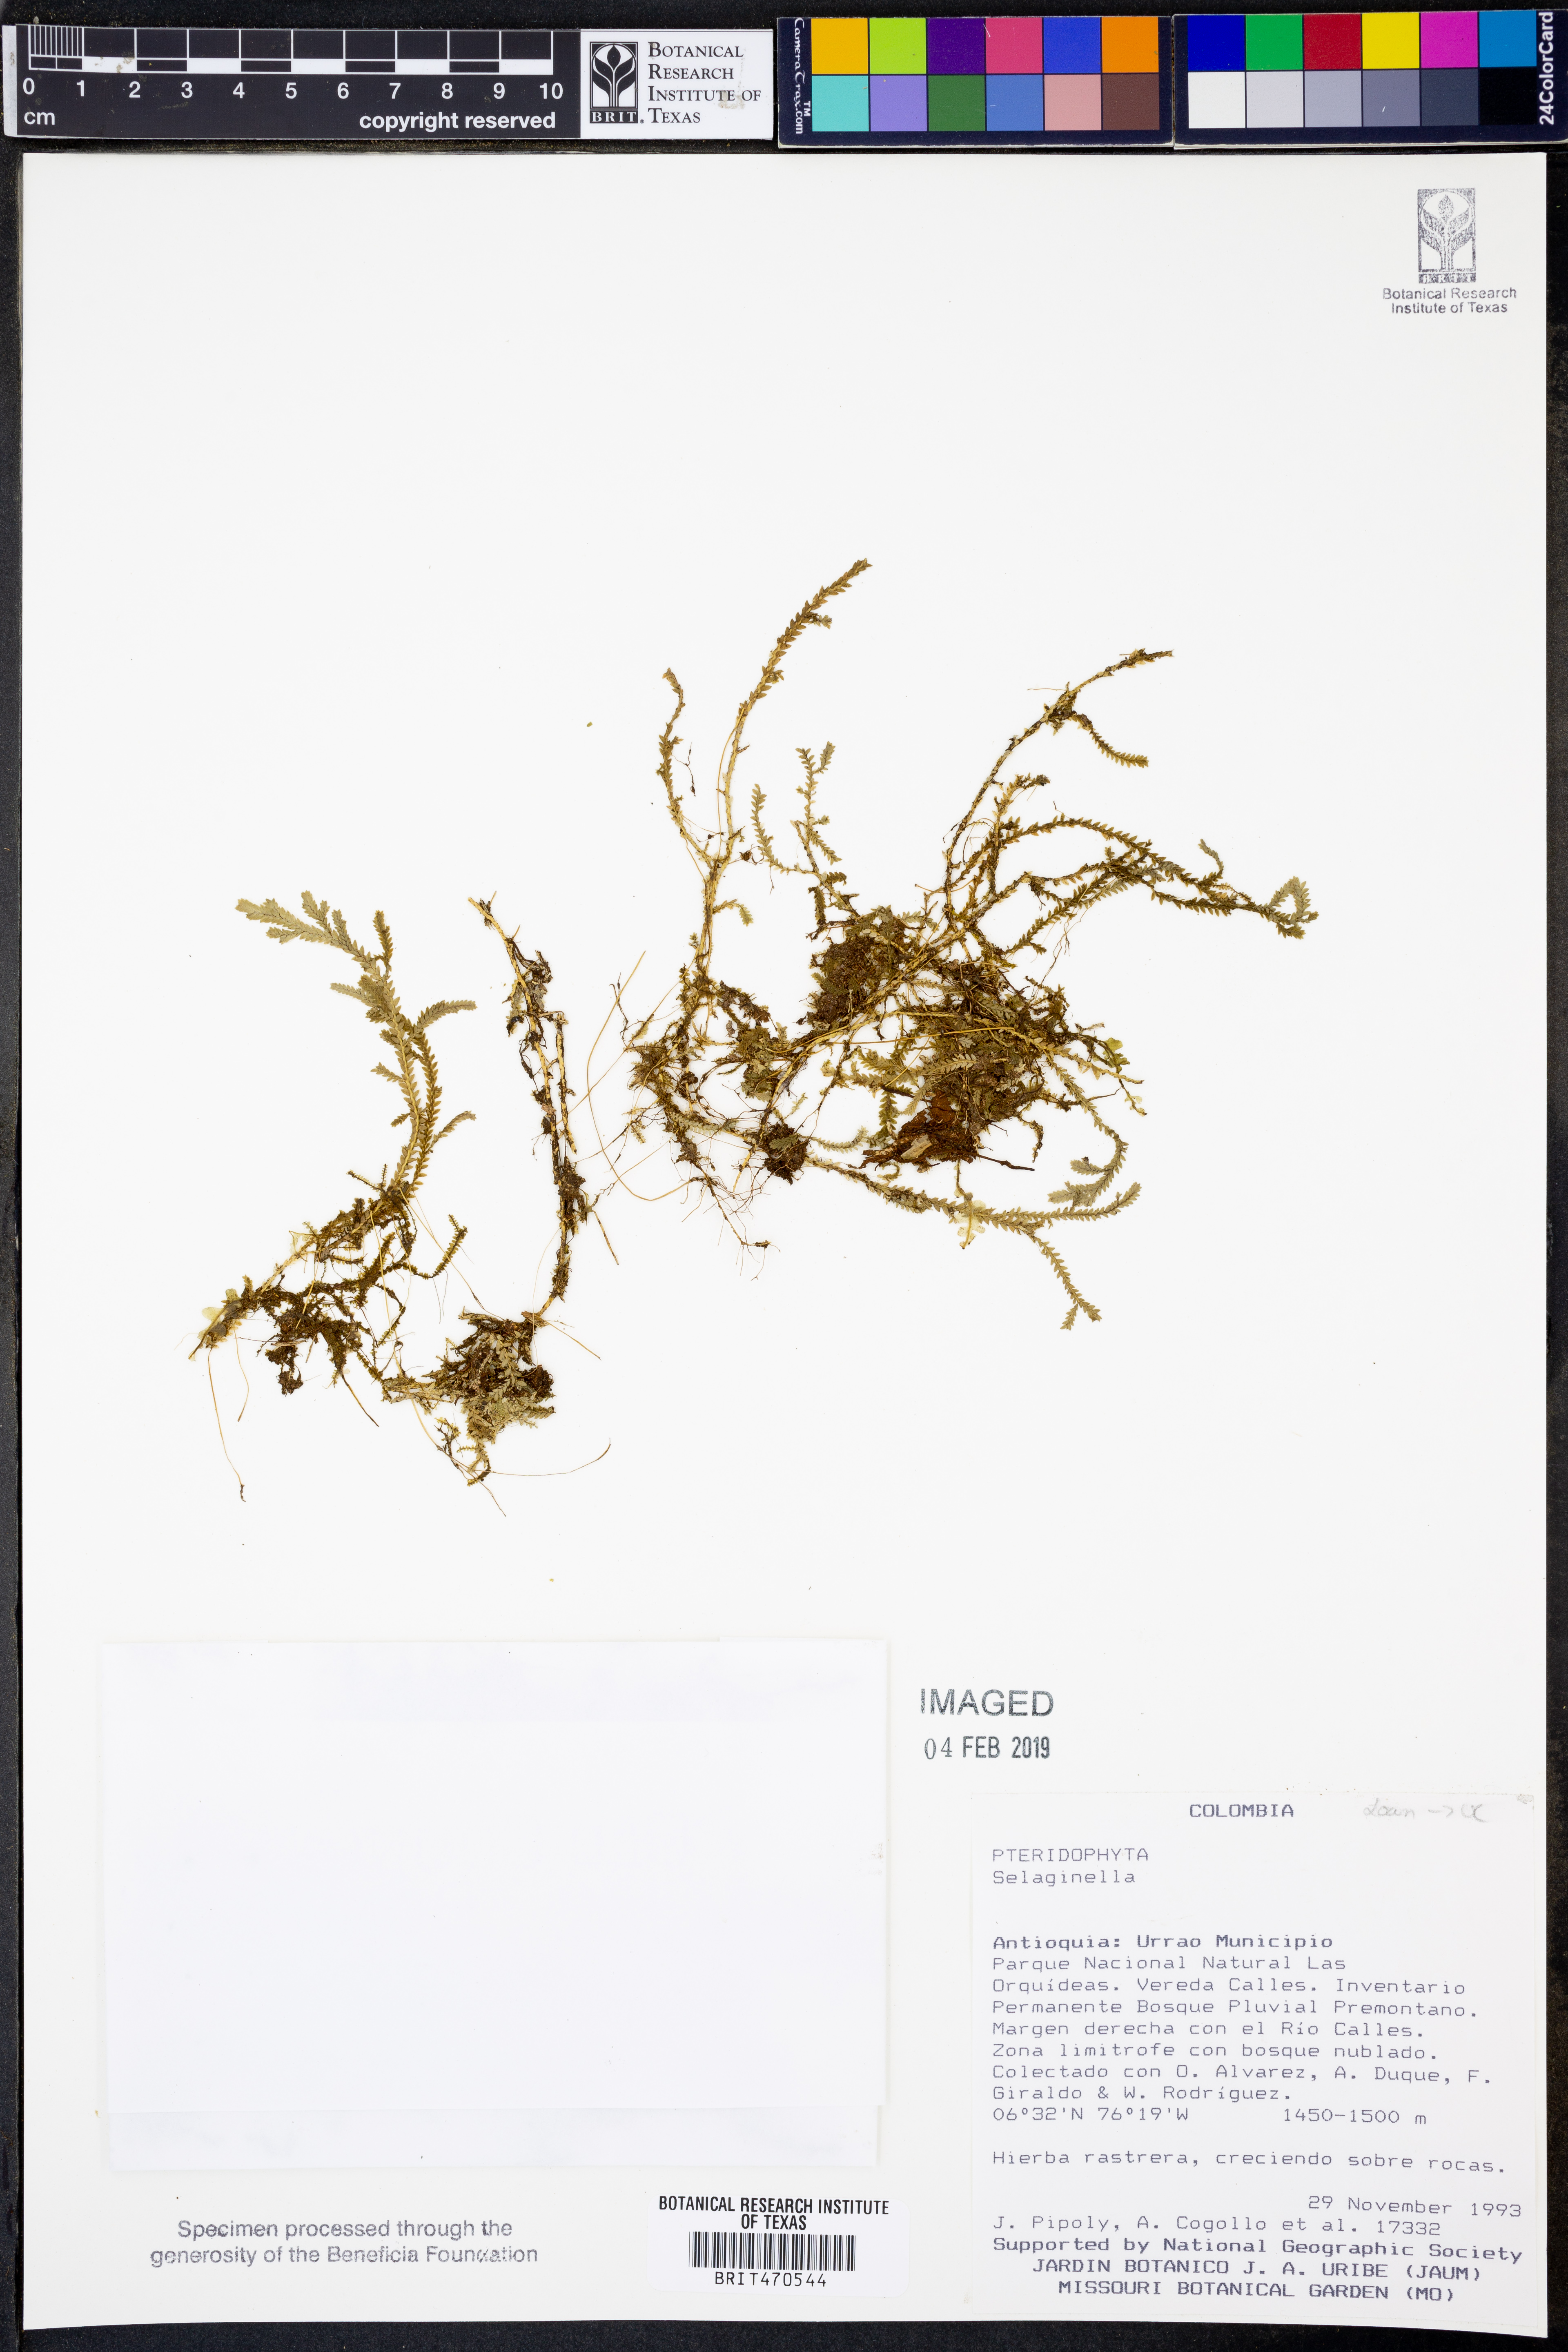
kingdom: Plantae
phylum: Tracheophyta
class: Lycopodiopsida
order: Selaginellales
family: Selaginellaceae
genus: Selaginella
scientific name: Selaginella euclimax
